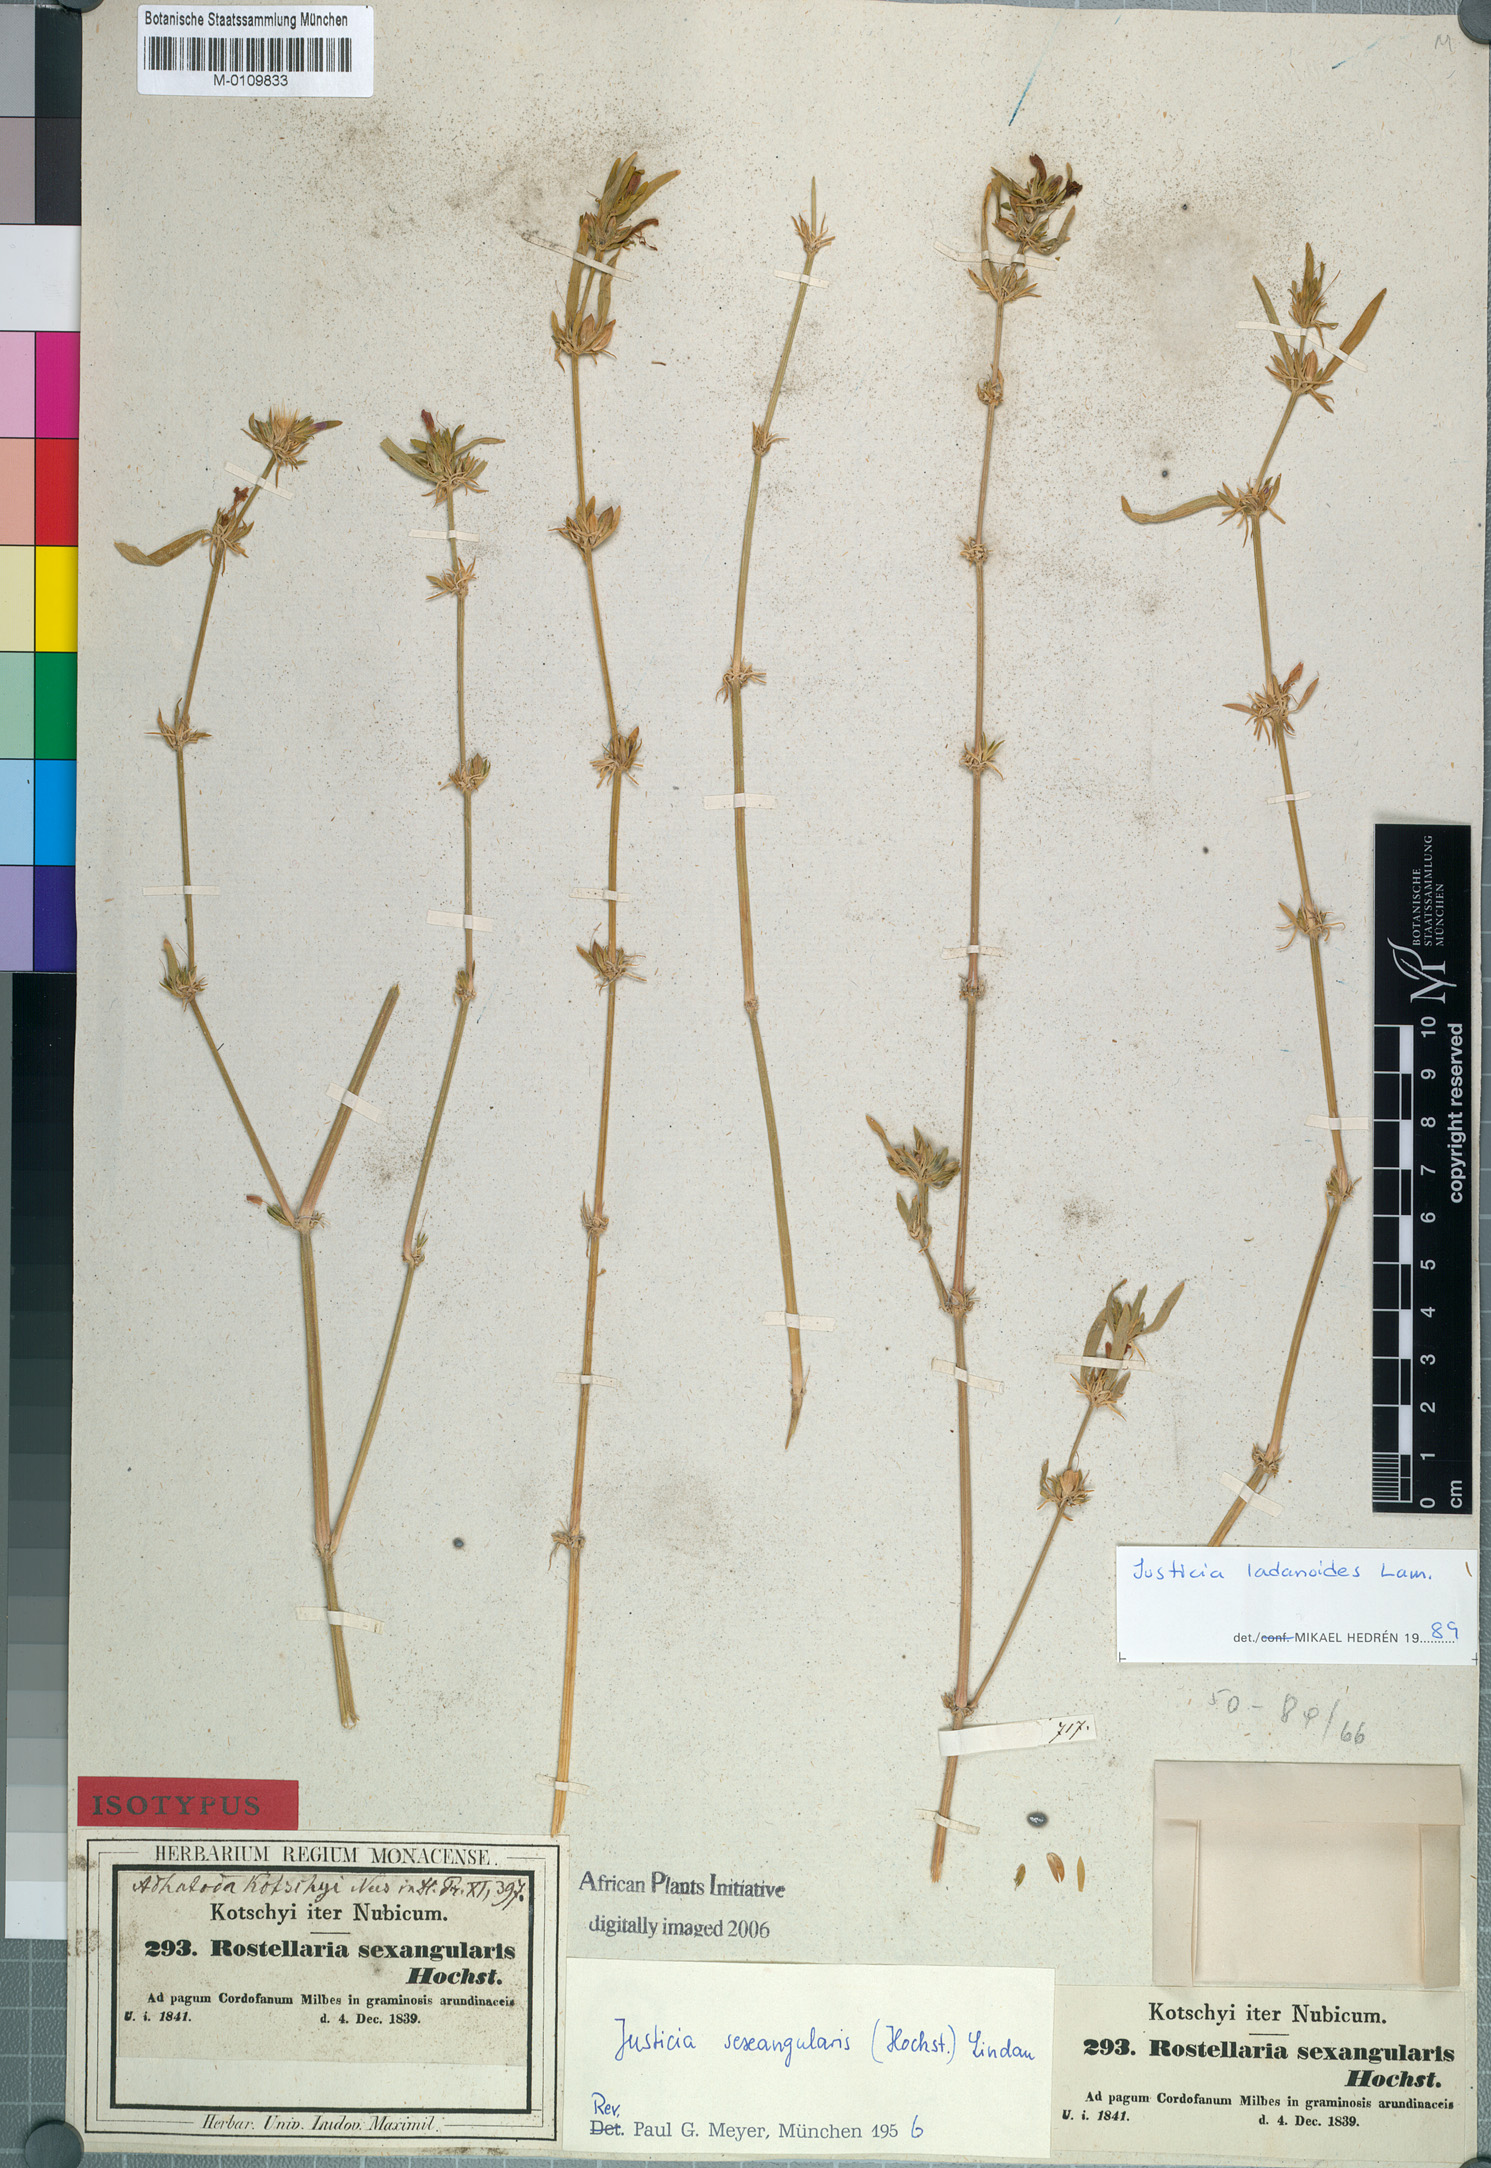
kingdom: Plantae
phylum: Tracheophyta
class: Magnoliopsida
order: Lamiales
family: Acanthaceae
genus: Justicia
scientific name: Justicia ladanoides
